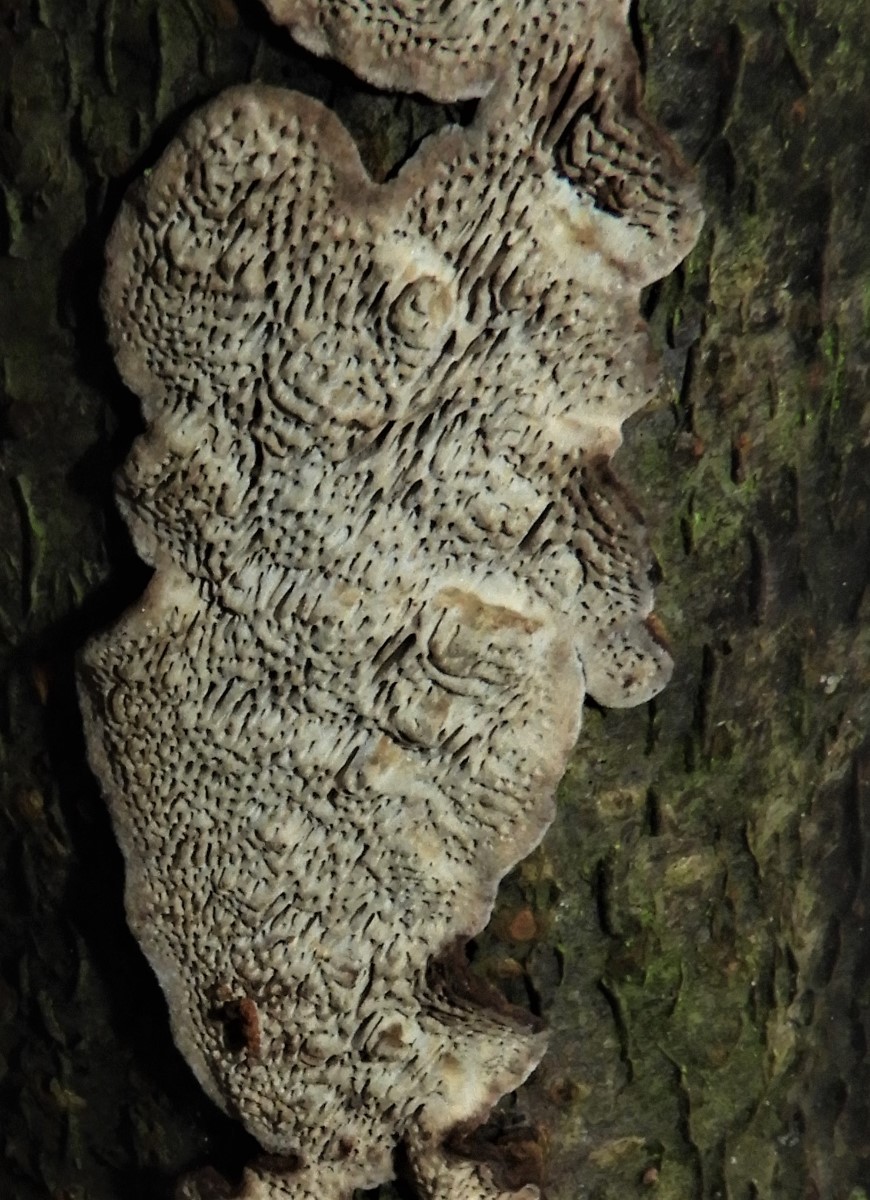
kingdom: Fungi
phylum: Basidiomycota
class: Agaricomycetes
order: Polyporales
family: Polyporaceae
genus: Podofomes
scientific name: Podofomes mollis
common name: blød begporesvamp
